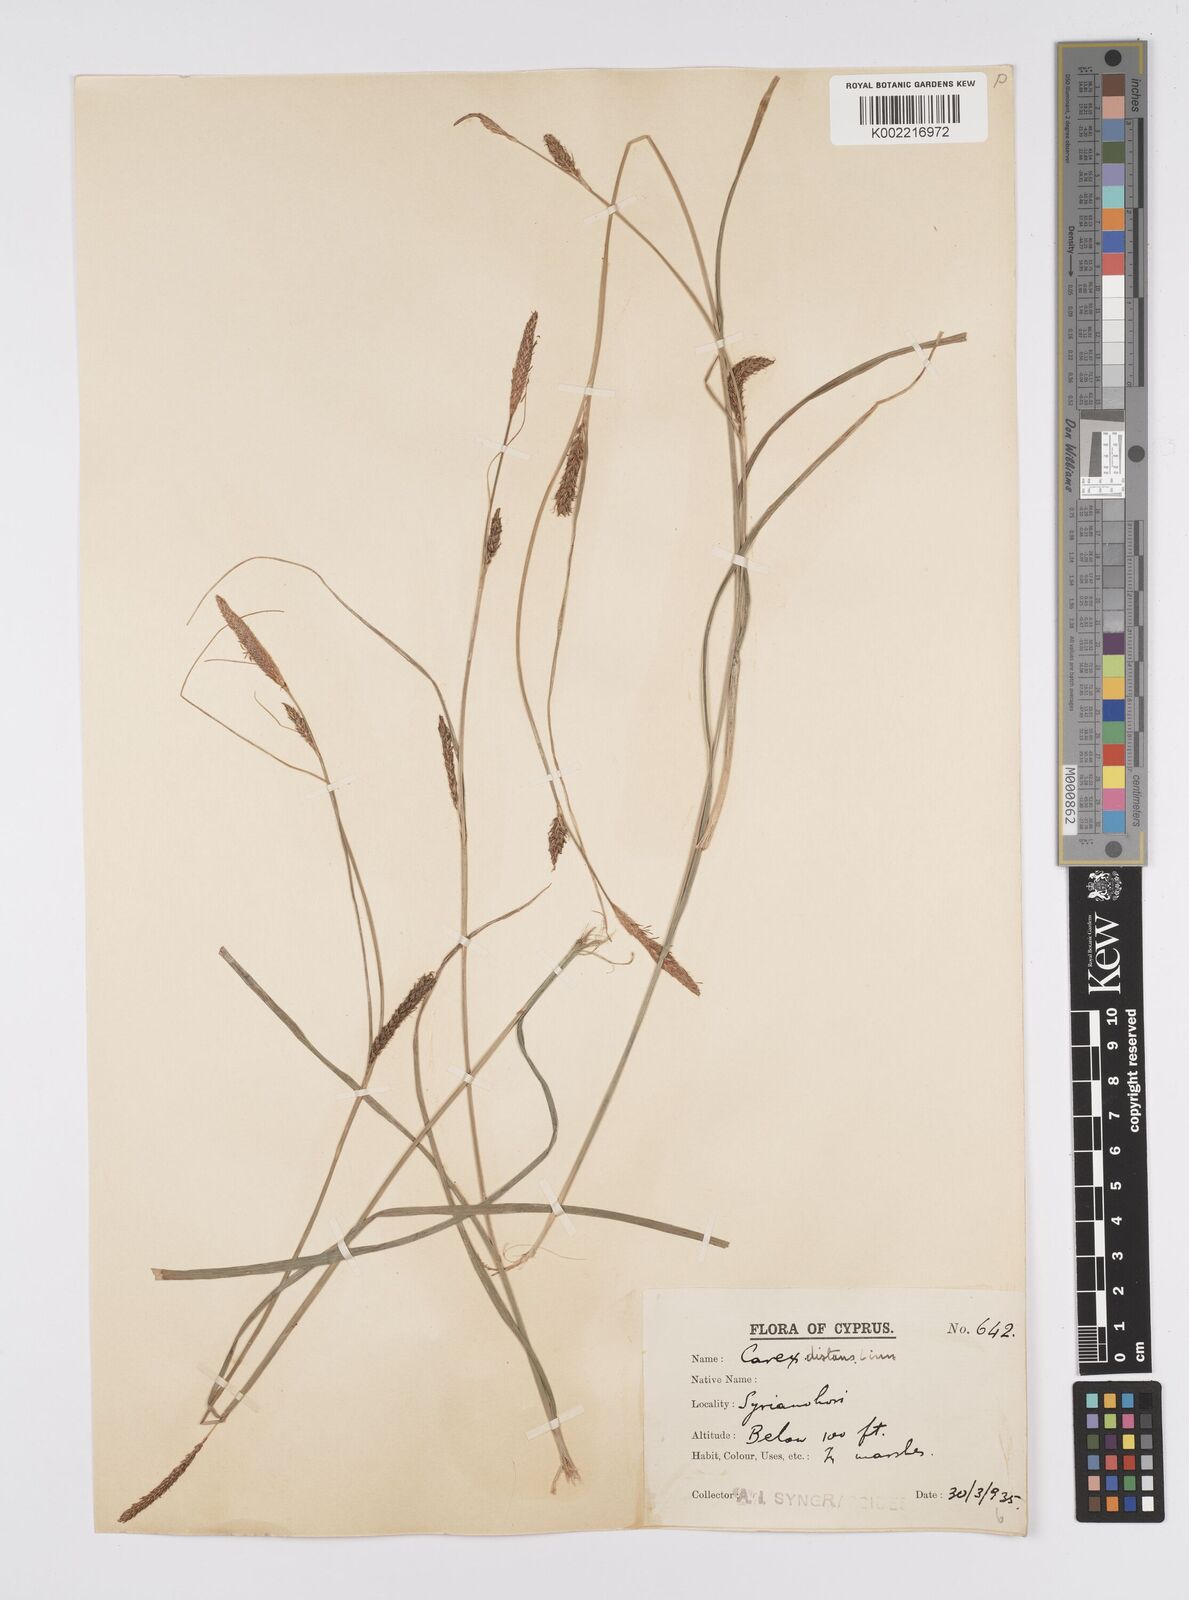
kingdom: Plantae
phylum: Tracheophyta
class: Liliopsida
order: Poales
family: Cyperaceae
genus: Carex
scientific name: Carex distans
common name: Distant sedge
